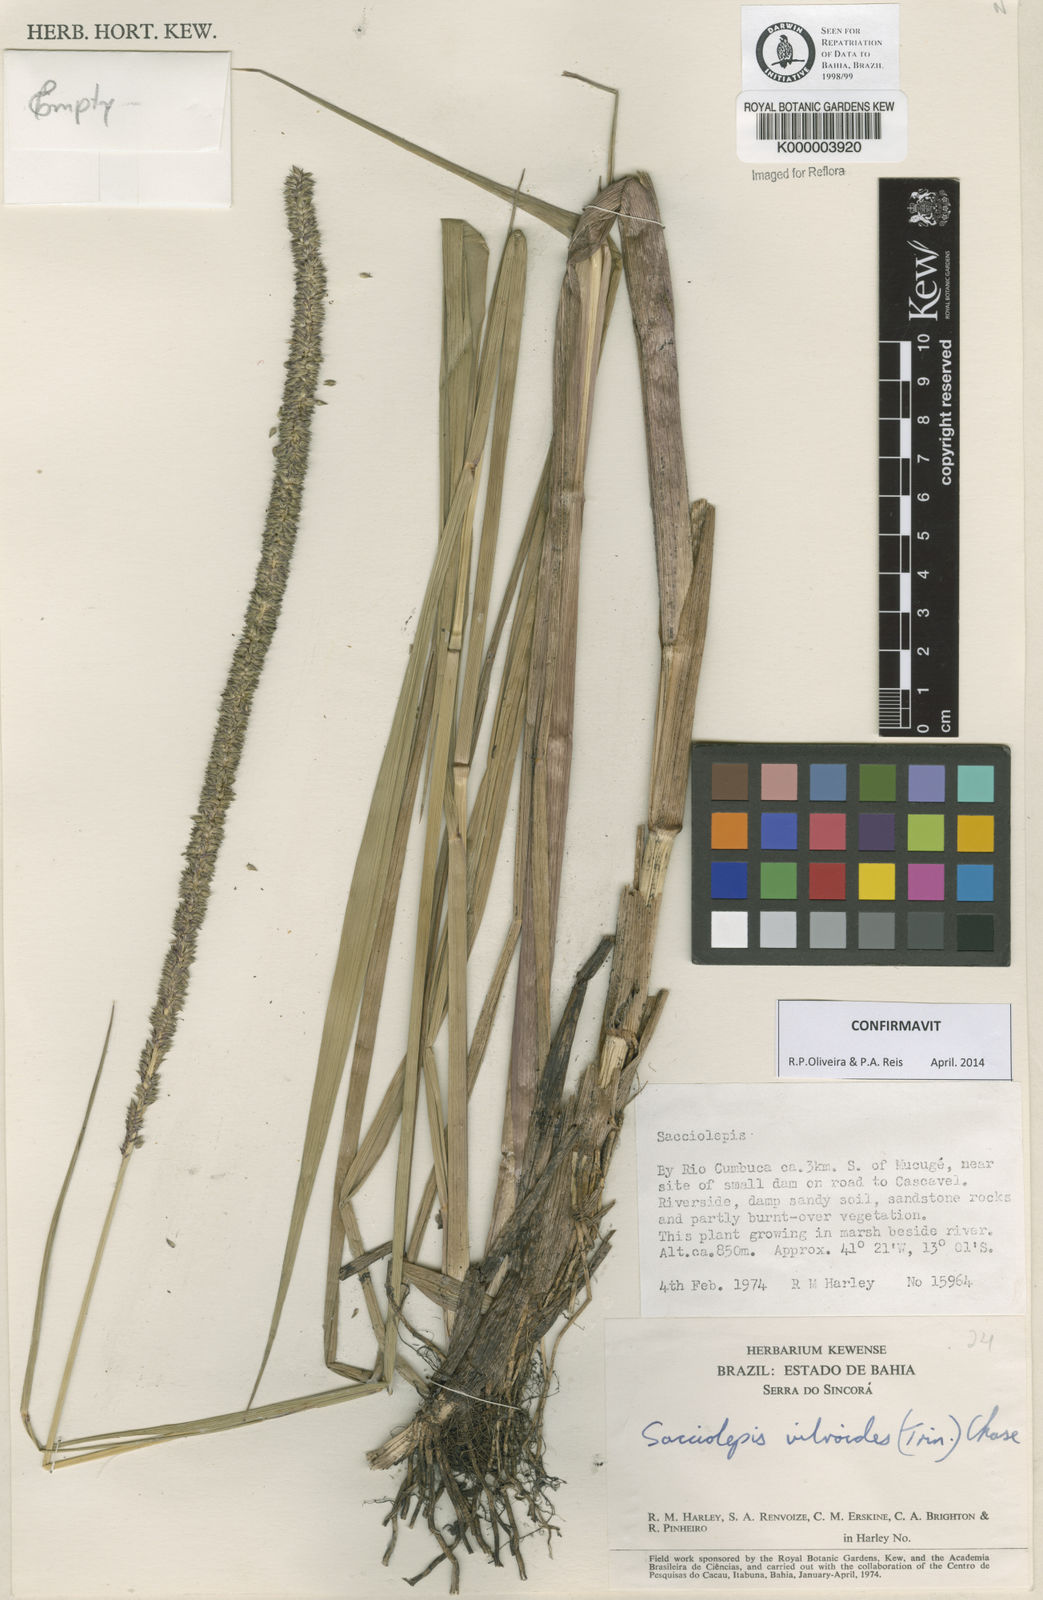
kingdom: Plantae
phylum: Tracheophyta
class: Liliopsida
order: Poales
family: Poaceae
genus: Sacciolepis
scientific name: Sacciolepis vilvoides
